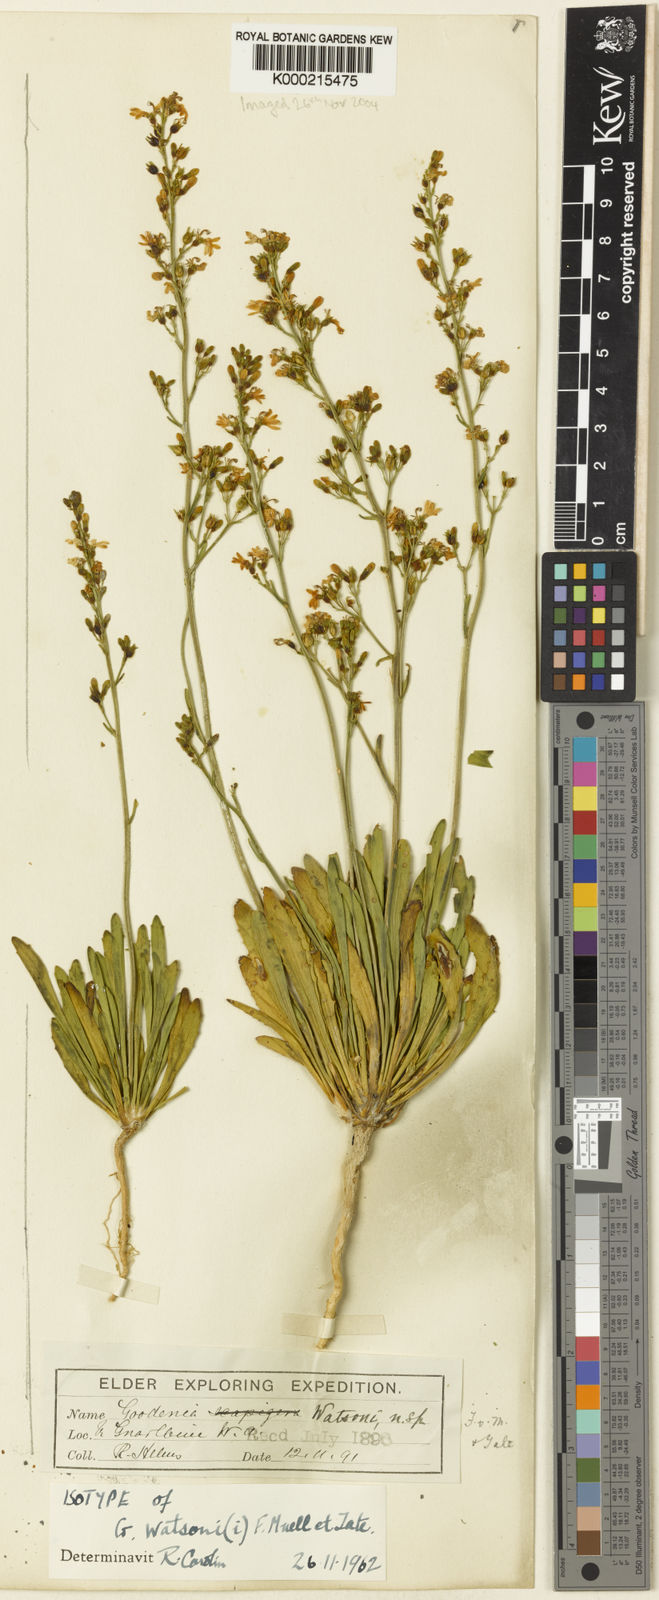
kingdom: Plantae
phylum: Tracheophyta
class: Magnoliopsida
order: Asterales
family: Goodeniaceae
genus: Goodenia
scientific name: Goodenia watsonii
